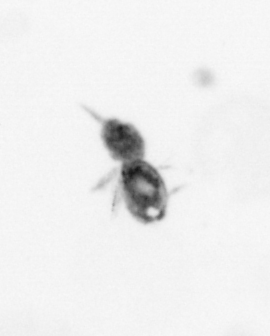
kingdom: Animalia
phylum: Arthropoda
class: Copepoda
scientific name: Copepoda
